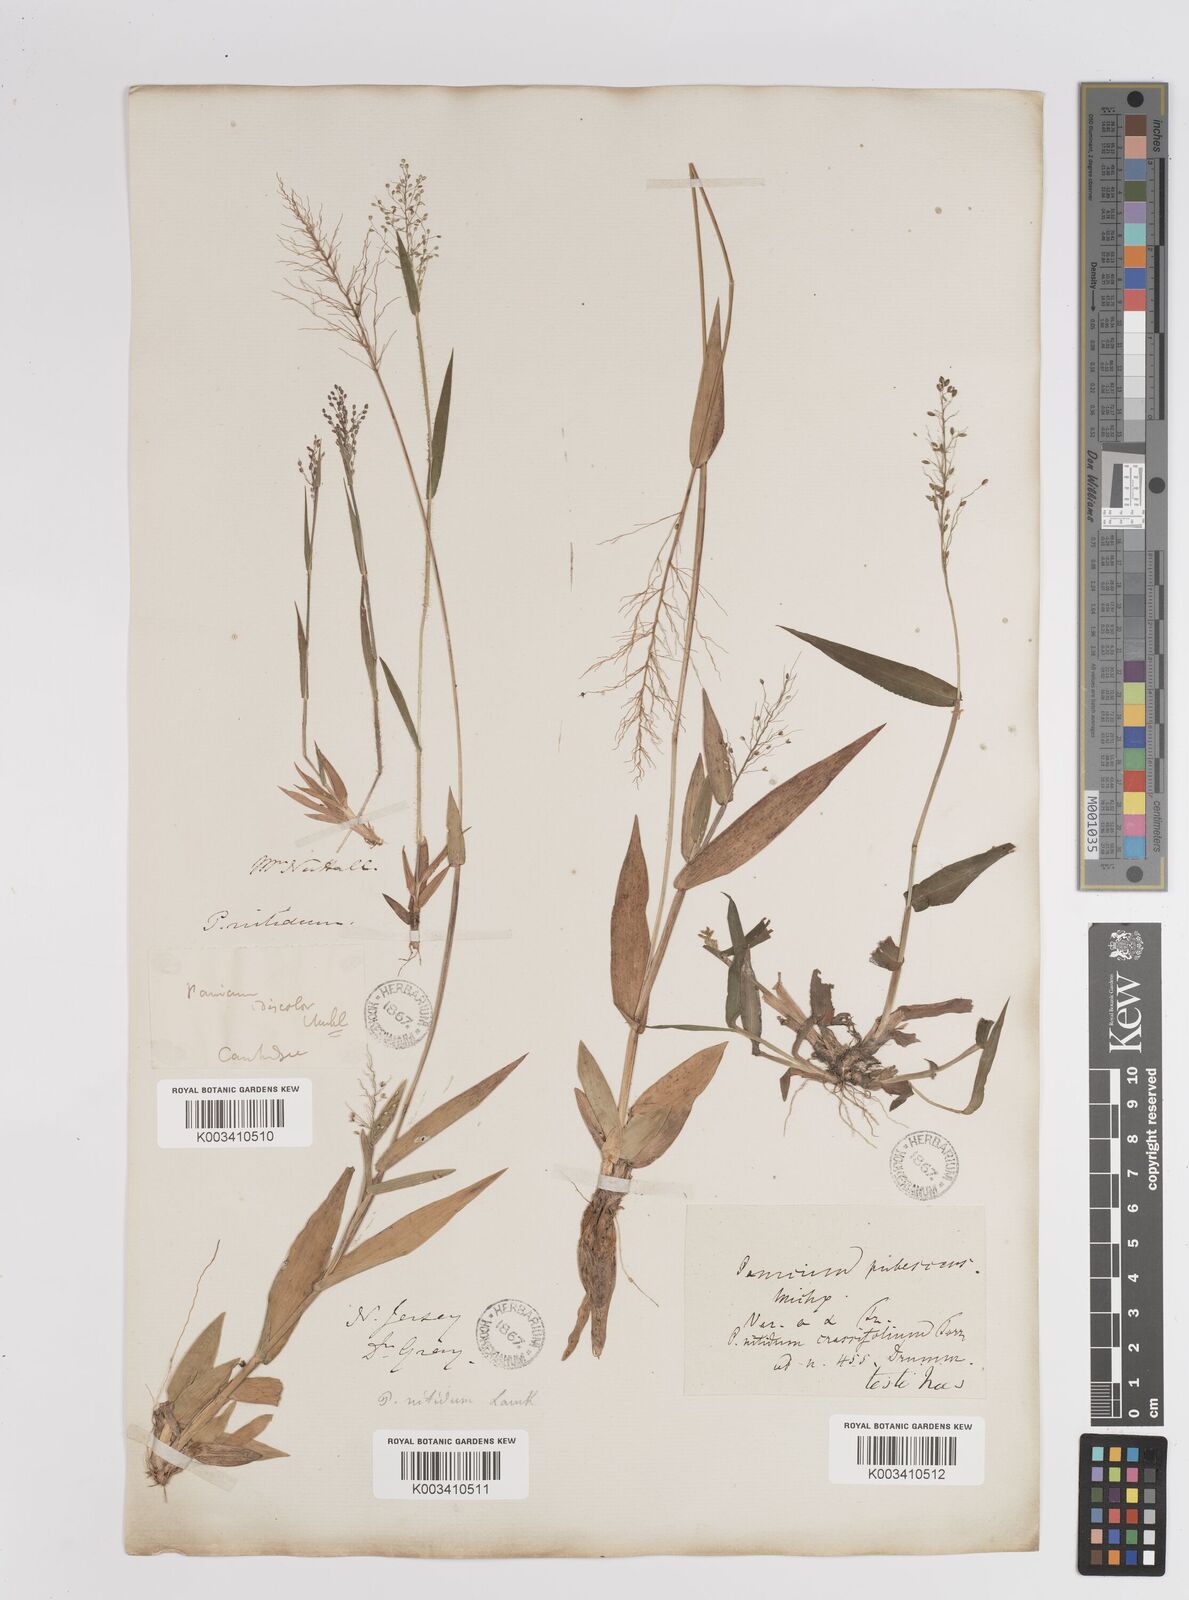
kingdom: Plantae
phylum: Tracheophyta
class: Liliopsida
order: Poales
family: Poaceae
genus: Dichanthelium
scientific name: Dichanthelium polyanthes
